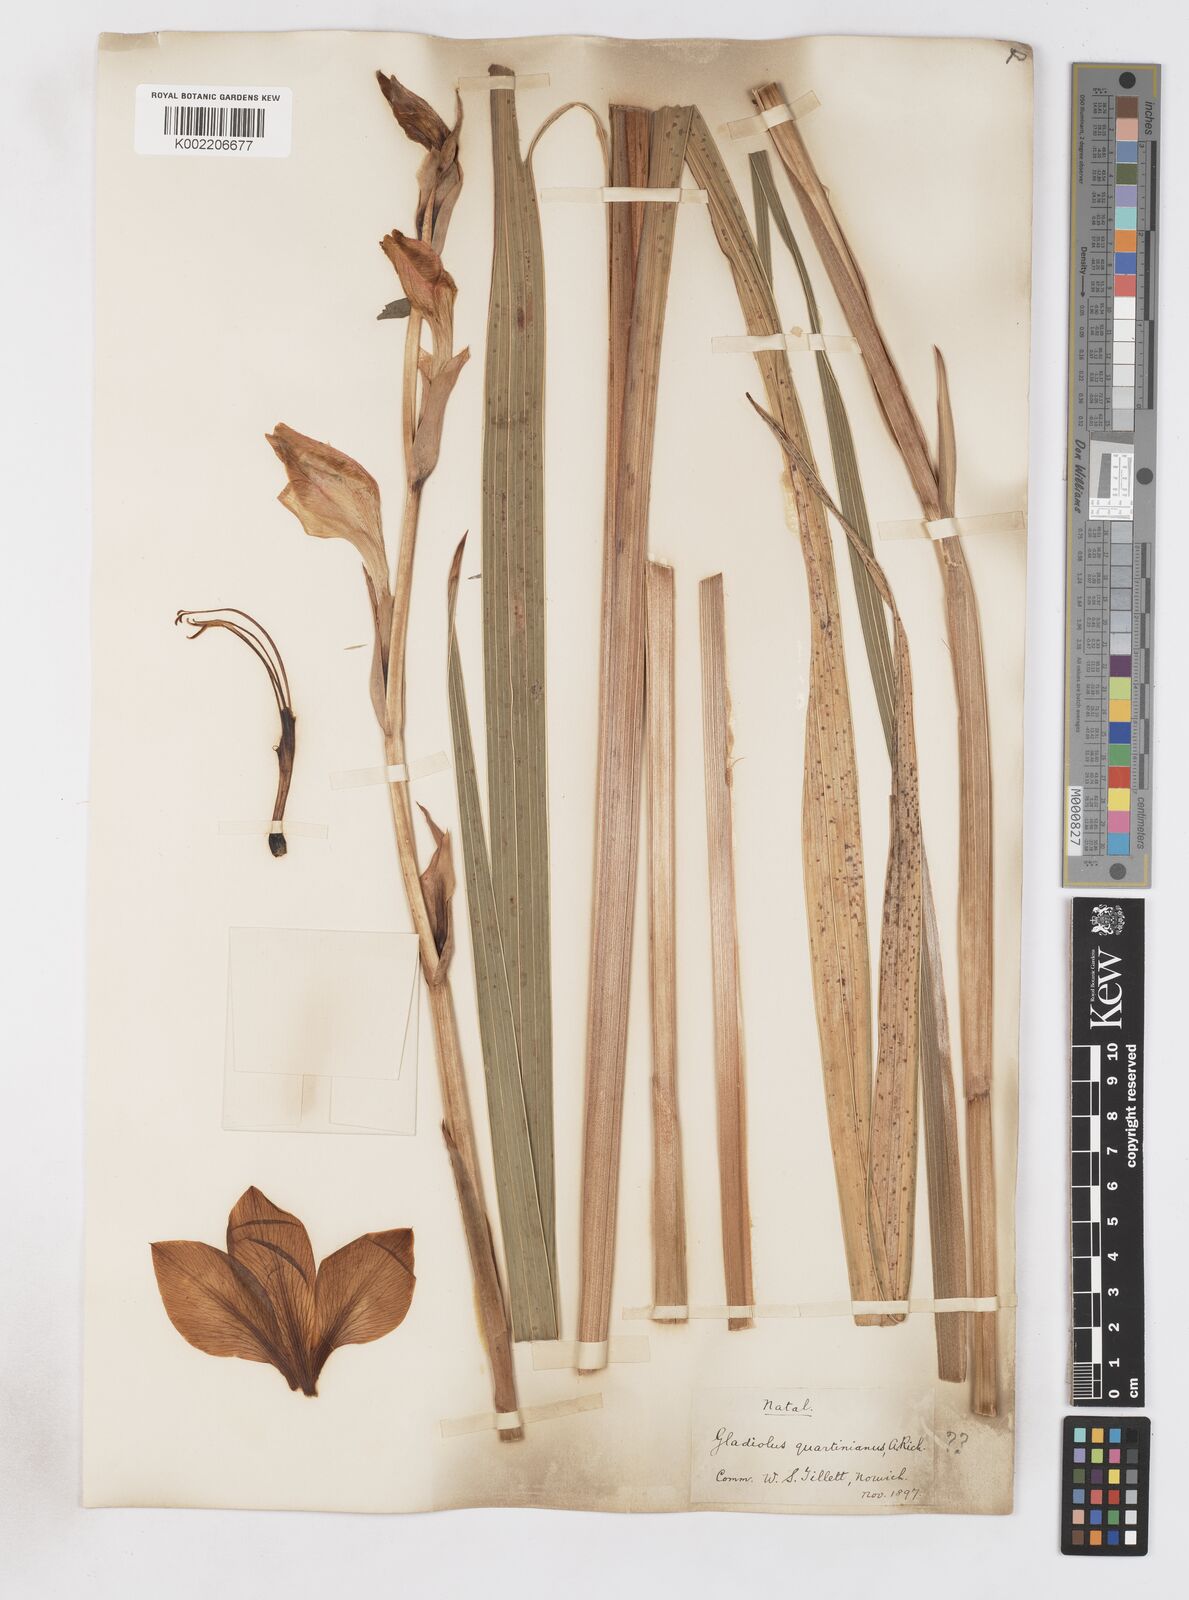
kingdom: Plantae
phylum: Tracheophyta
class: Liliopsida
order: Asparagales
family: Iridaceae
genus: Gladiolus
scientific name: Gladiolus dalenii
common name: Cornflag
